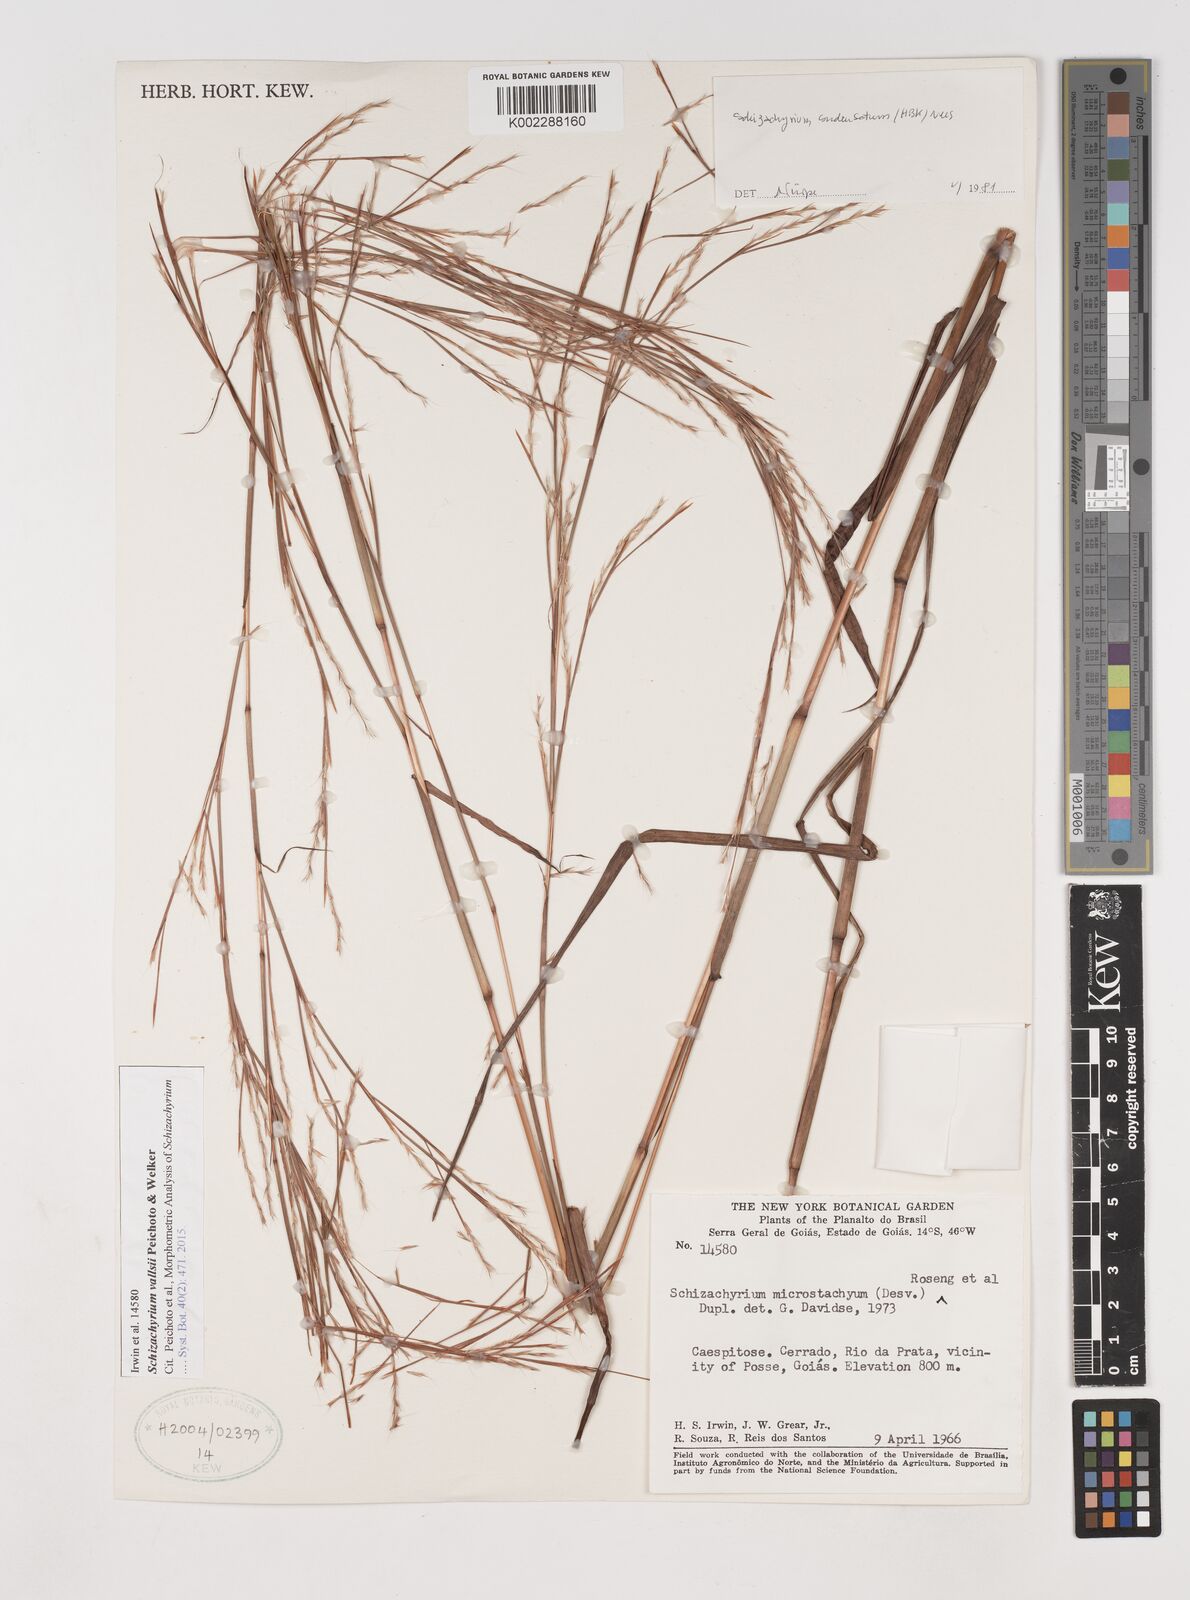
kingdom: Plantae
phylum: Tracheophyta
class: Liliopsida
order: Poales
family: Poaceae
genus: Schizachyrium
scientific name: Schizachyrium vallsii
